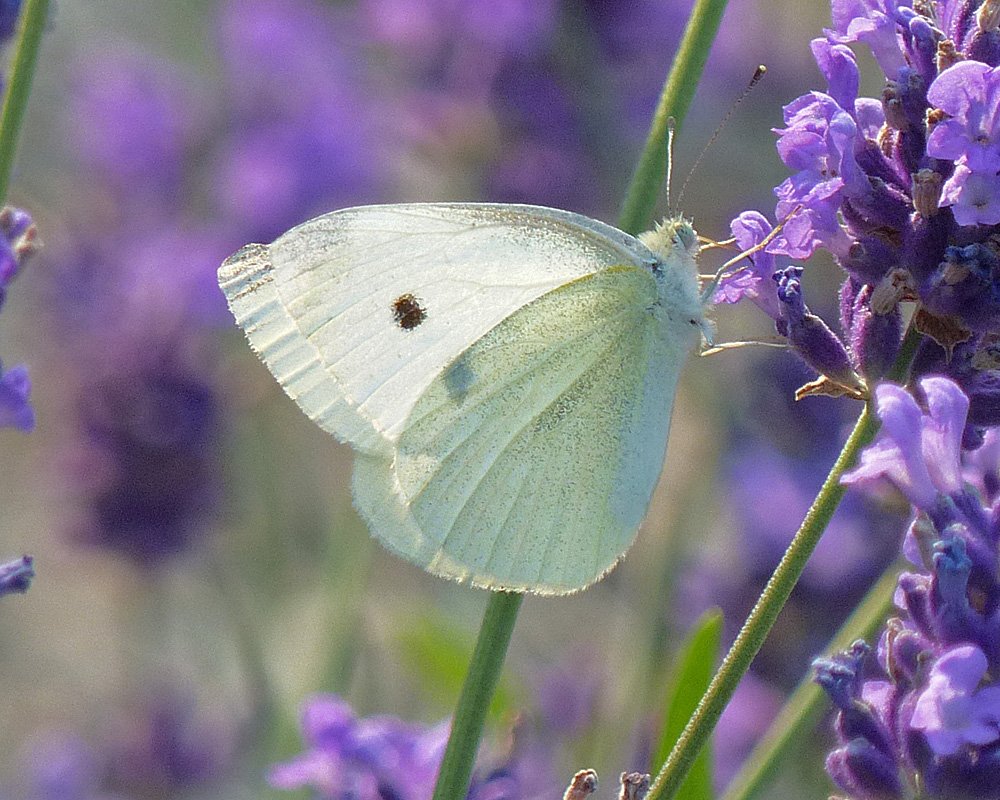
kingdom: Animalia
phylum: Arthropoda
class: Insecta
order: Lepidoptera
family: Pieridae
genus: Pieris
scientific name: Pieris rapae
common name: Cabbage White
